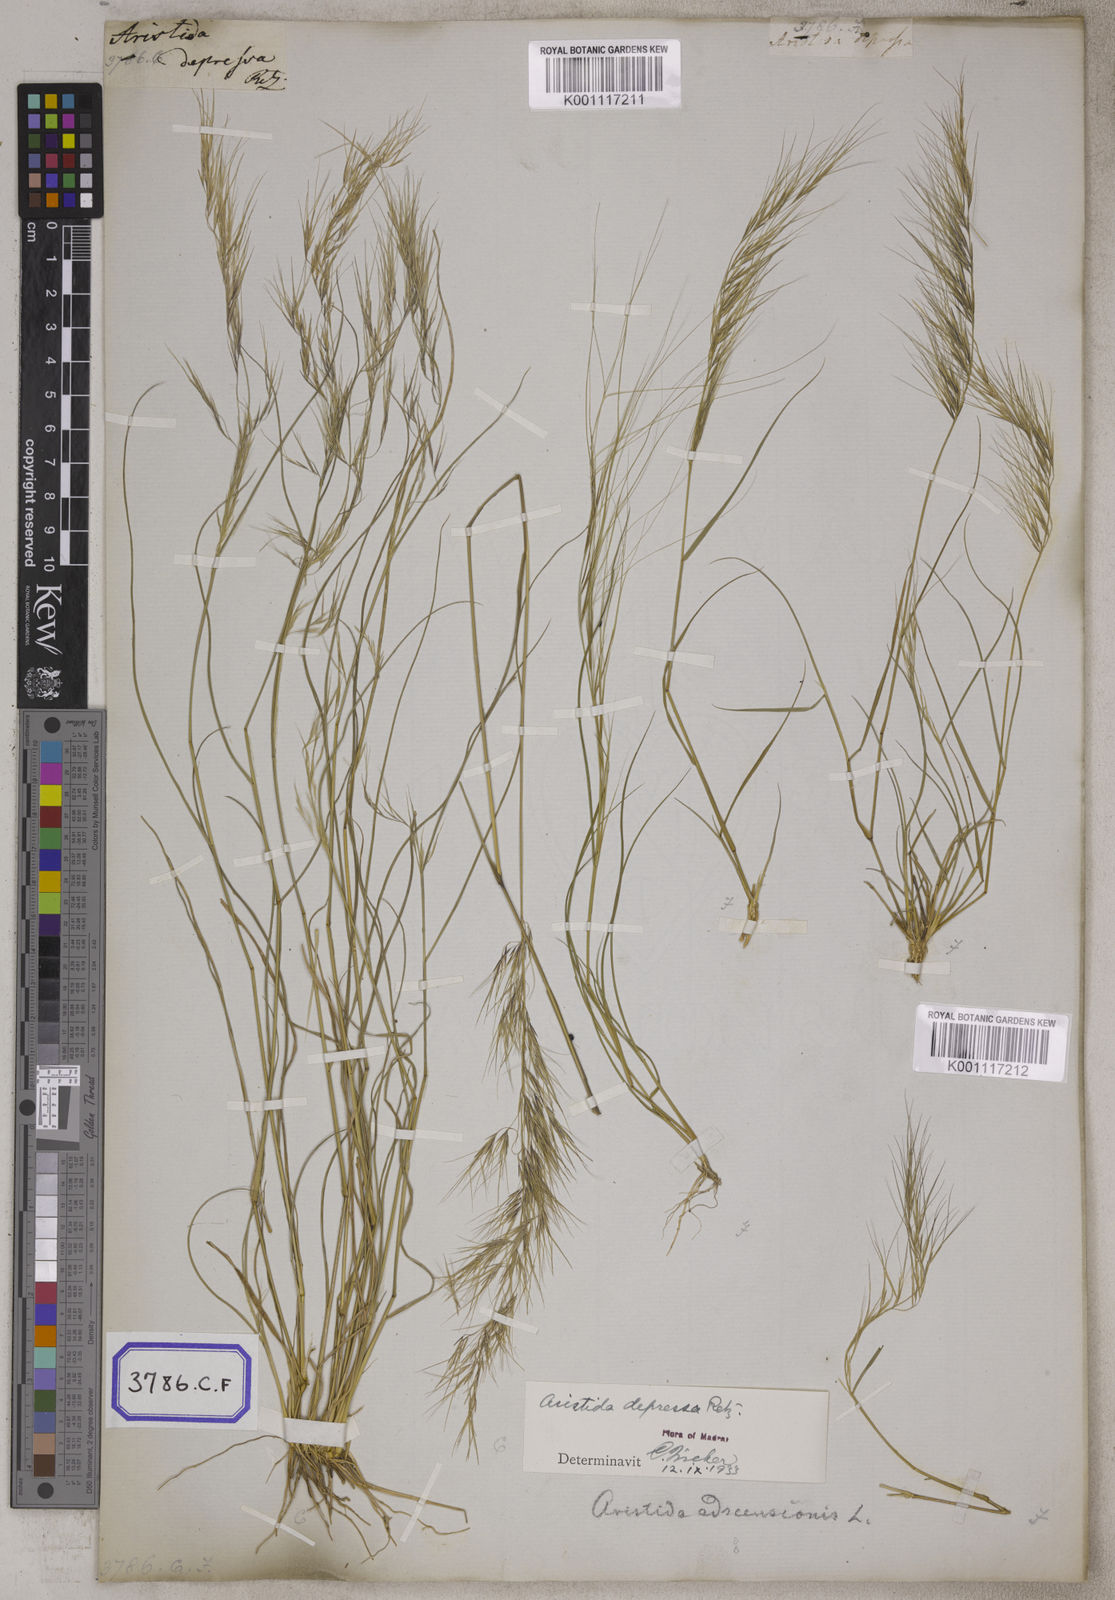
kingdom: Plantae
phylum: Tracheophyta
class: Liliopsida
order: Poales
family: Poaceae
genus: Aristida
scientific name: Aristida adscensionis
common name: Sixweeks threeawn
